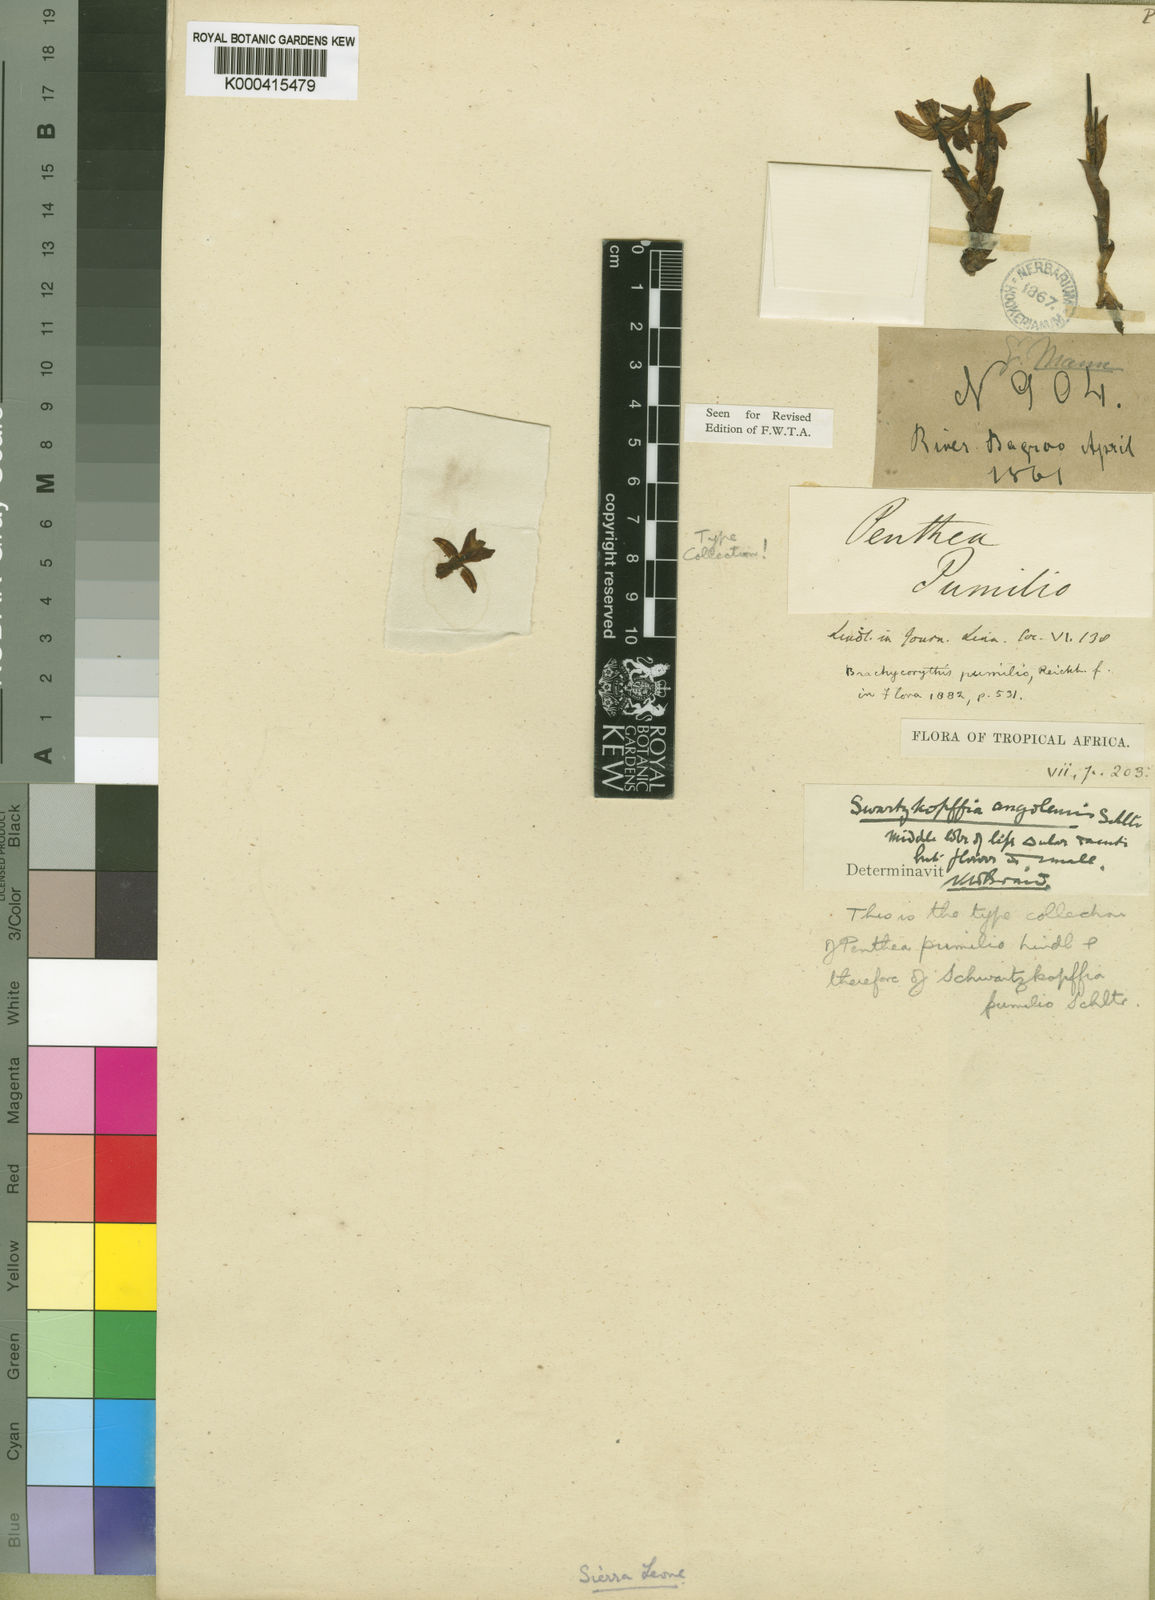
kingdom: Plantae
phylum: Tracheophyta
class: Liliopsida
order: Asparagales
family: Orchidaceae
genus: Brachycorythis
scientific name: Brachycorythis pumilio
